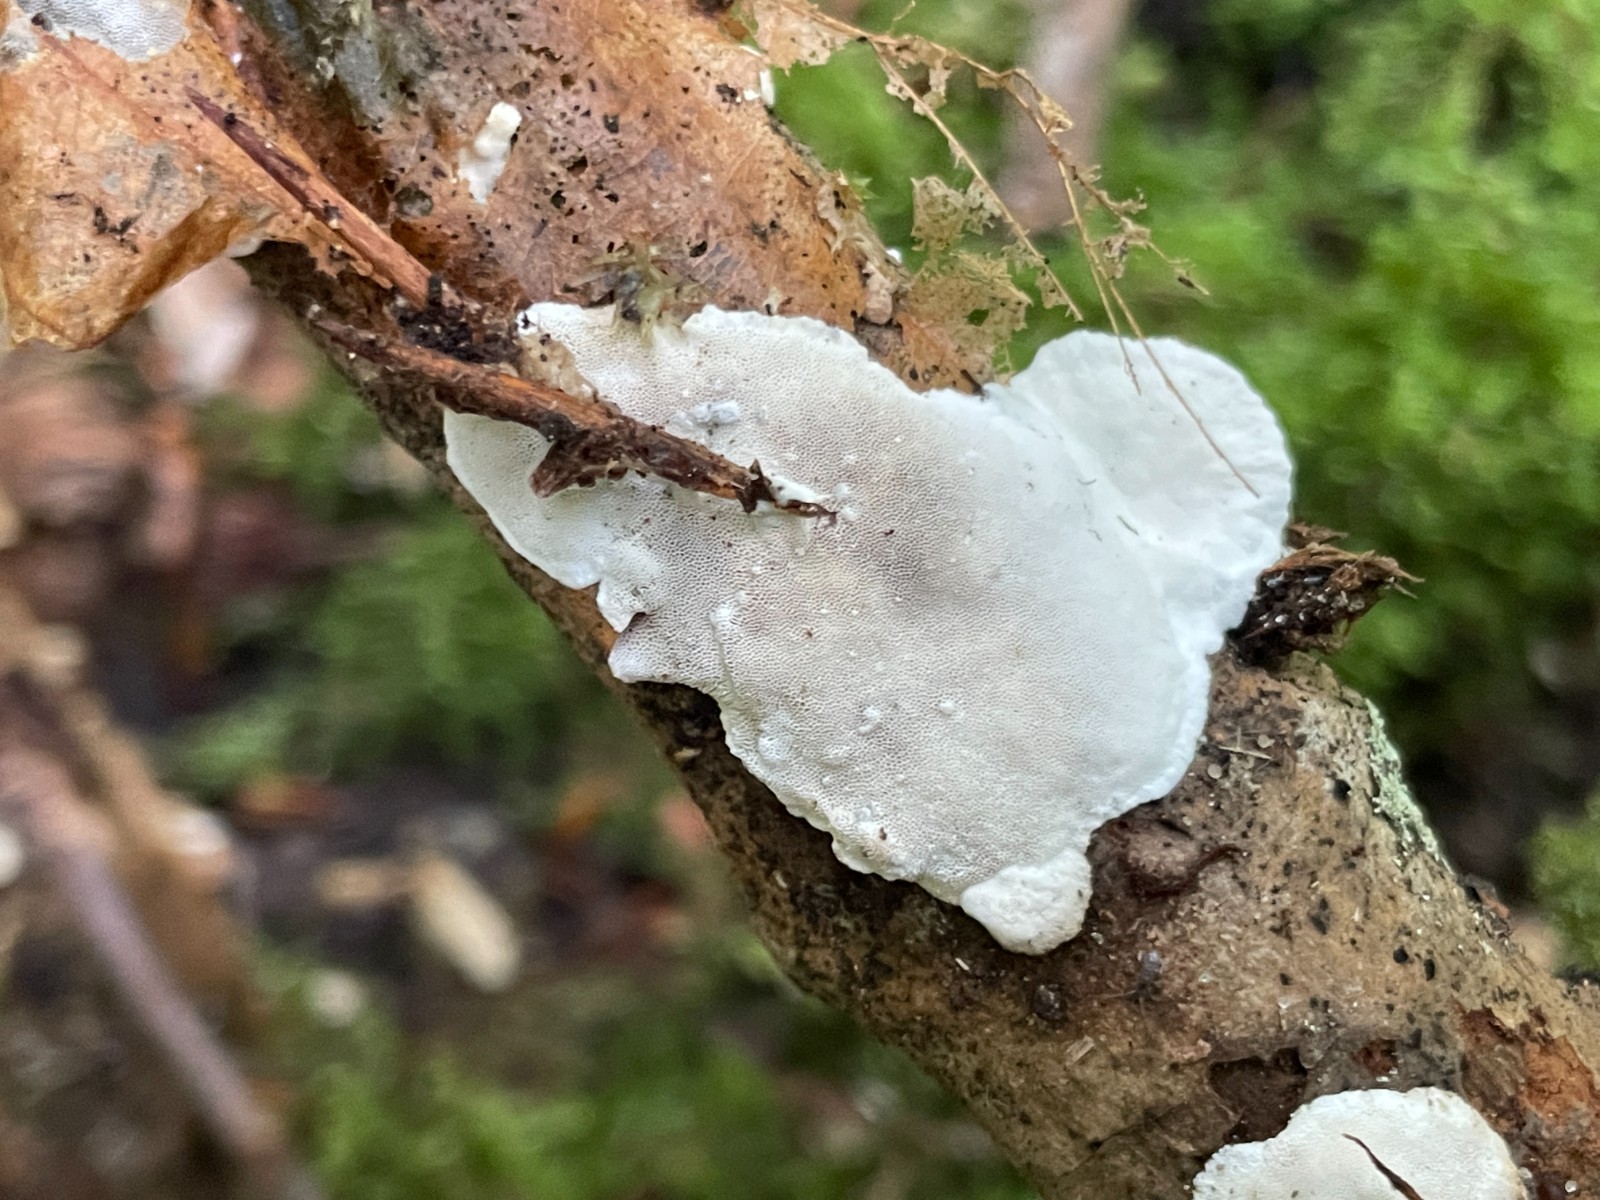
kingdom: Fungi
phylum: Basidiomycota
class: Agaricomycetes
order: Polyporales
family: Incrustoporiaceae
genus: Skeletocutis
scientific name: Skeletocutis nemoralis
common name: stor krystalporesvamp
